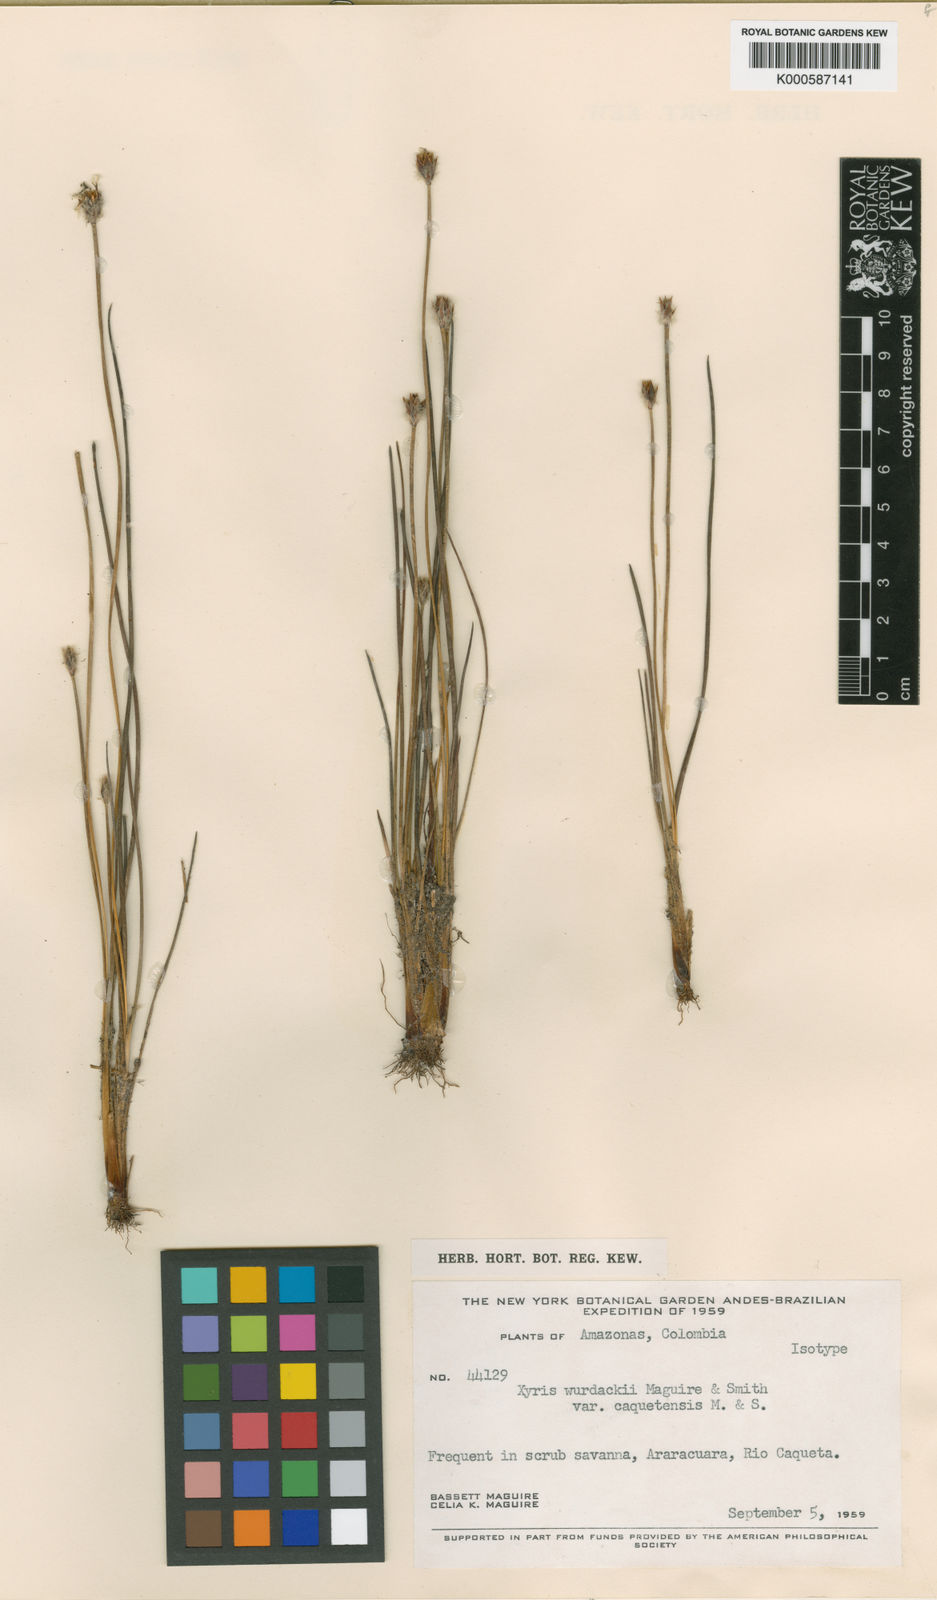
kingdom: Plantae
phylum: Tracheophyta
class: Liliopsida
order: Poales
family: Xyridaceae
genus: Xyris
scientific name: Xyris wurdackii
